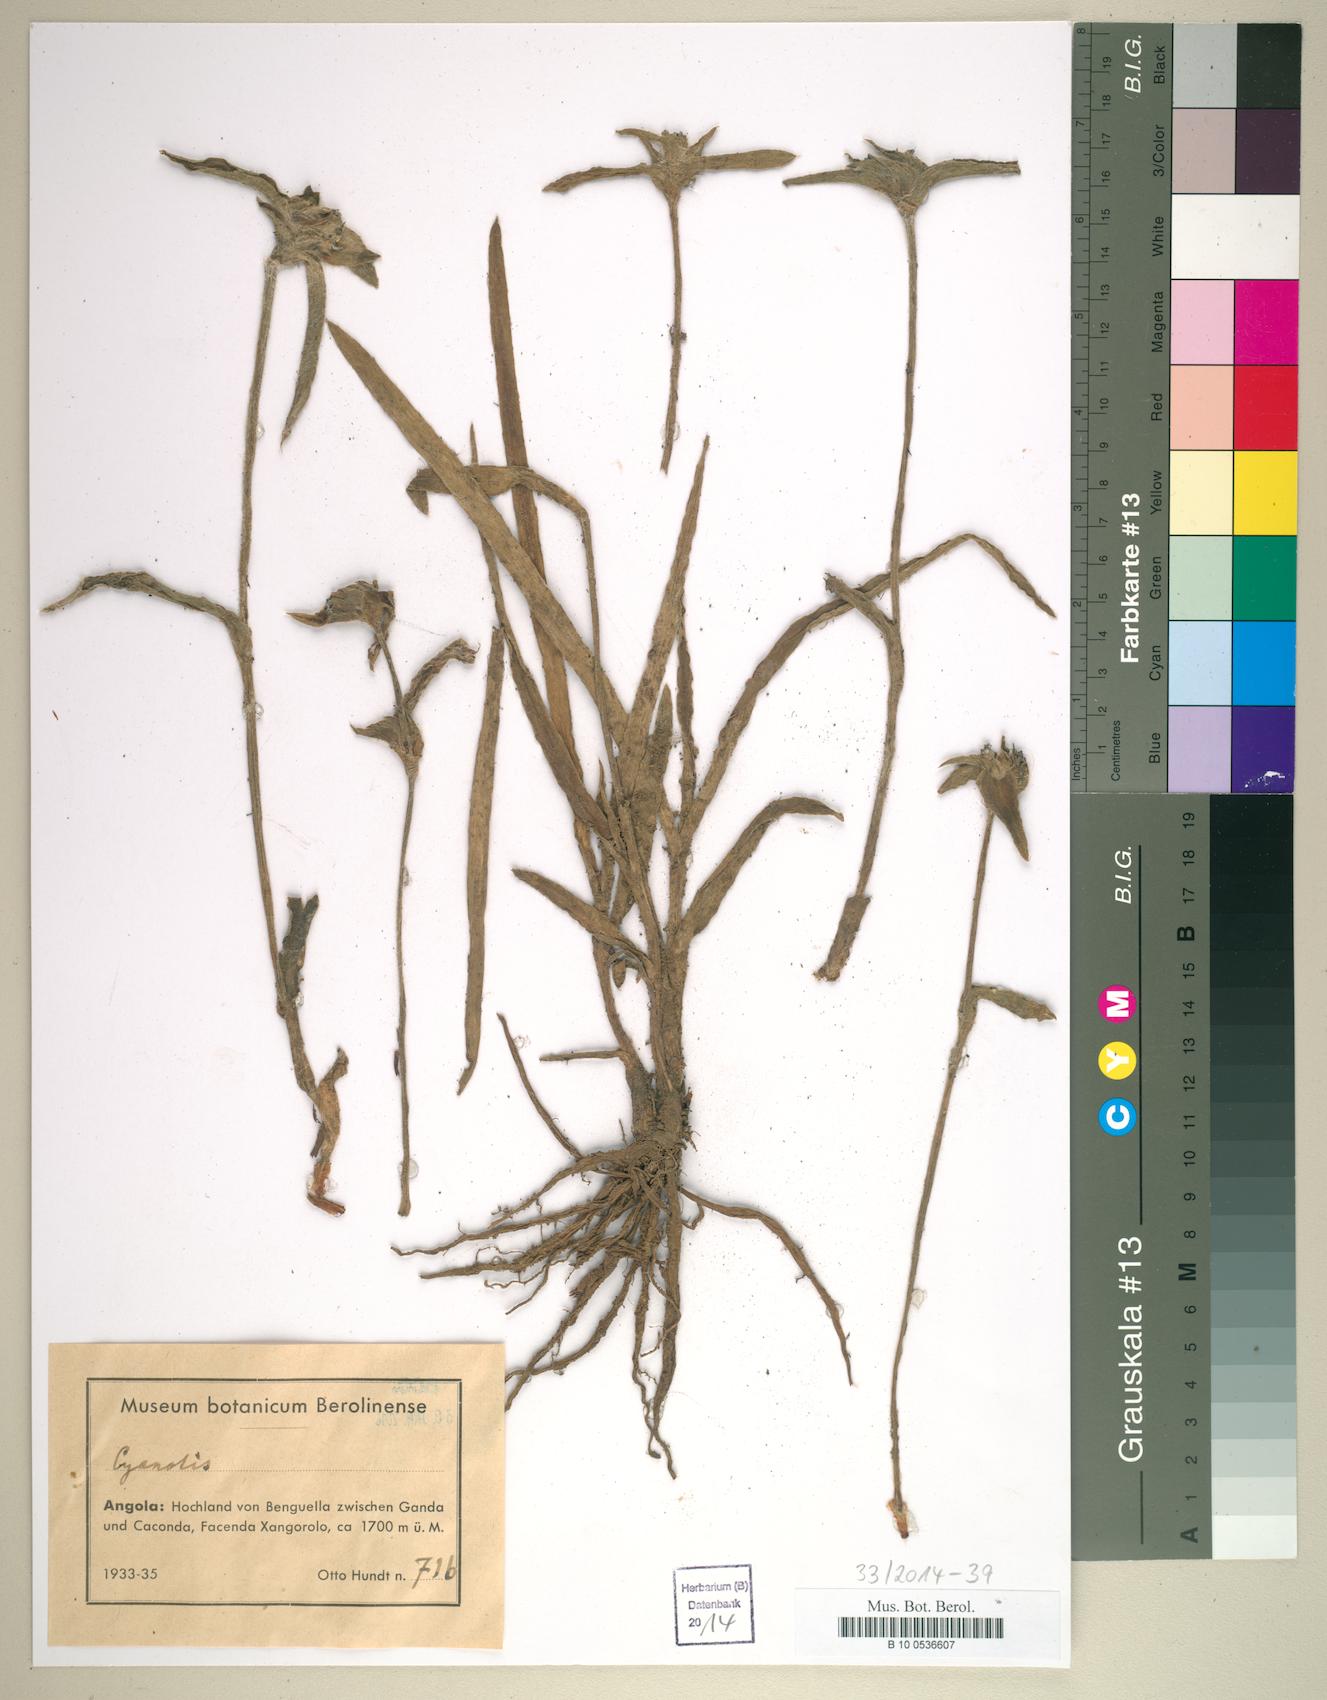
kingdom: Plantae
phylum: Tracheophyta
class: Liliopsida
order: Commelinales
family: Commelinaceae
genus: Cyanotis
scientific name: Cyanotis
